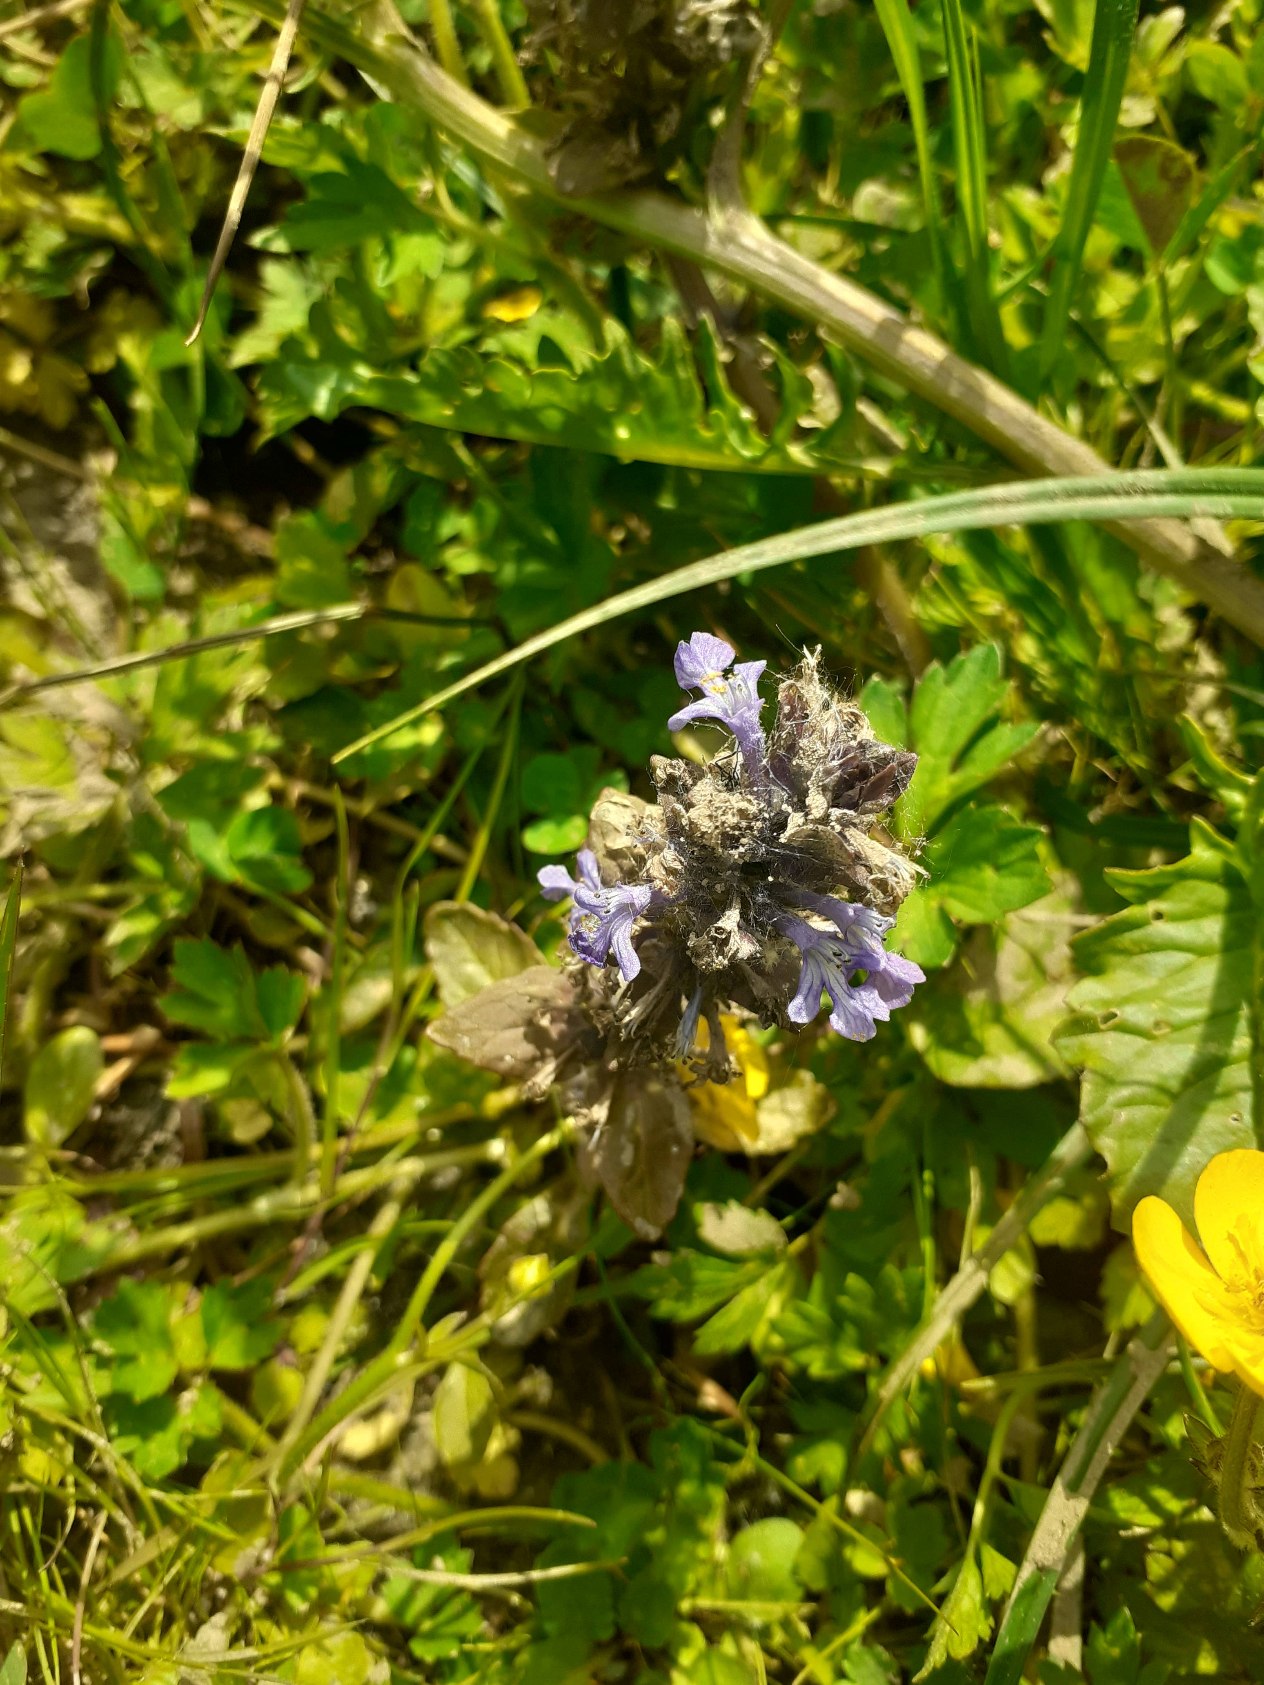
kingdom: Plantae
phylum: Tracheophyta
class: Magnoliopsida
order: Lamiales
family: Lamiaceae
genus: Ajuga
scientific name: Ajuga reptans
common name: Krybende læbeløs
